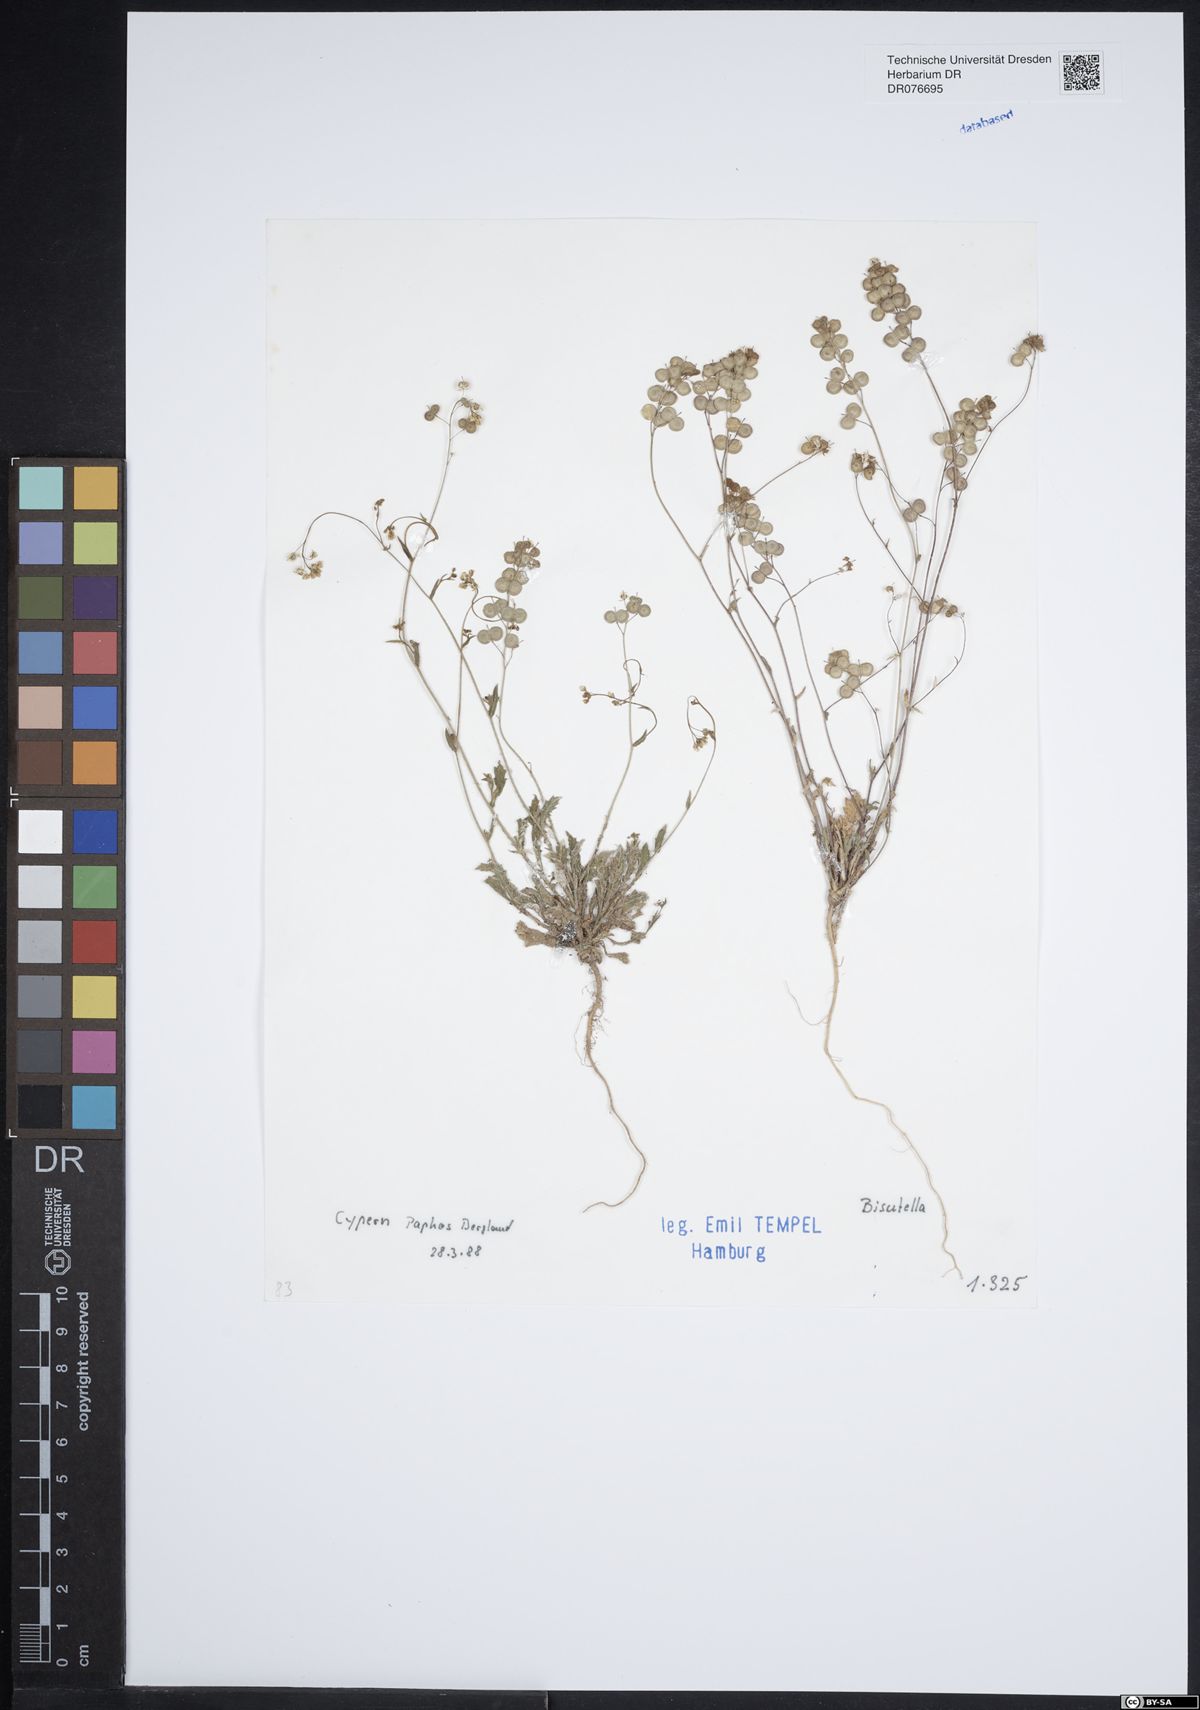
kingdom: Plantae
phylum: Tracheophyta
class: Magnoliopsida
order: Brassicales
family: Brassicaceae
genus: Biscutella
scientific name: Biscutella
